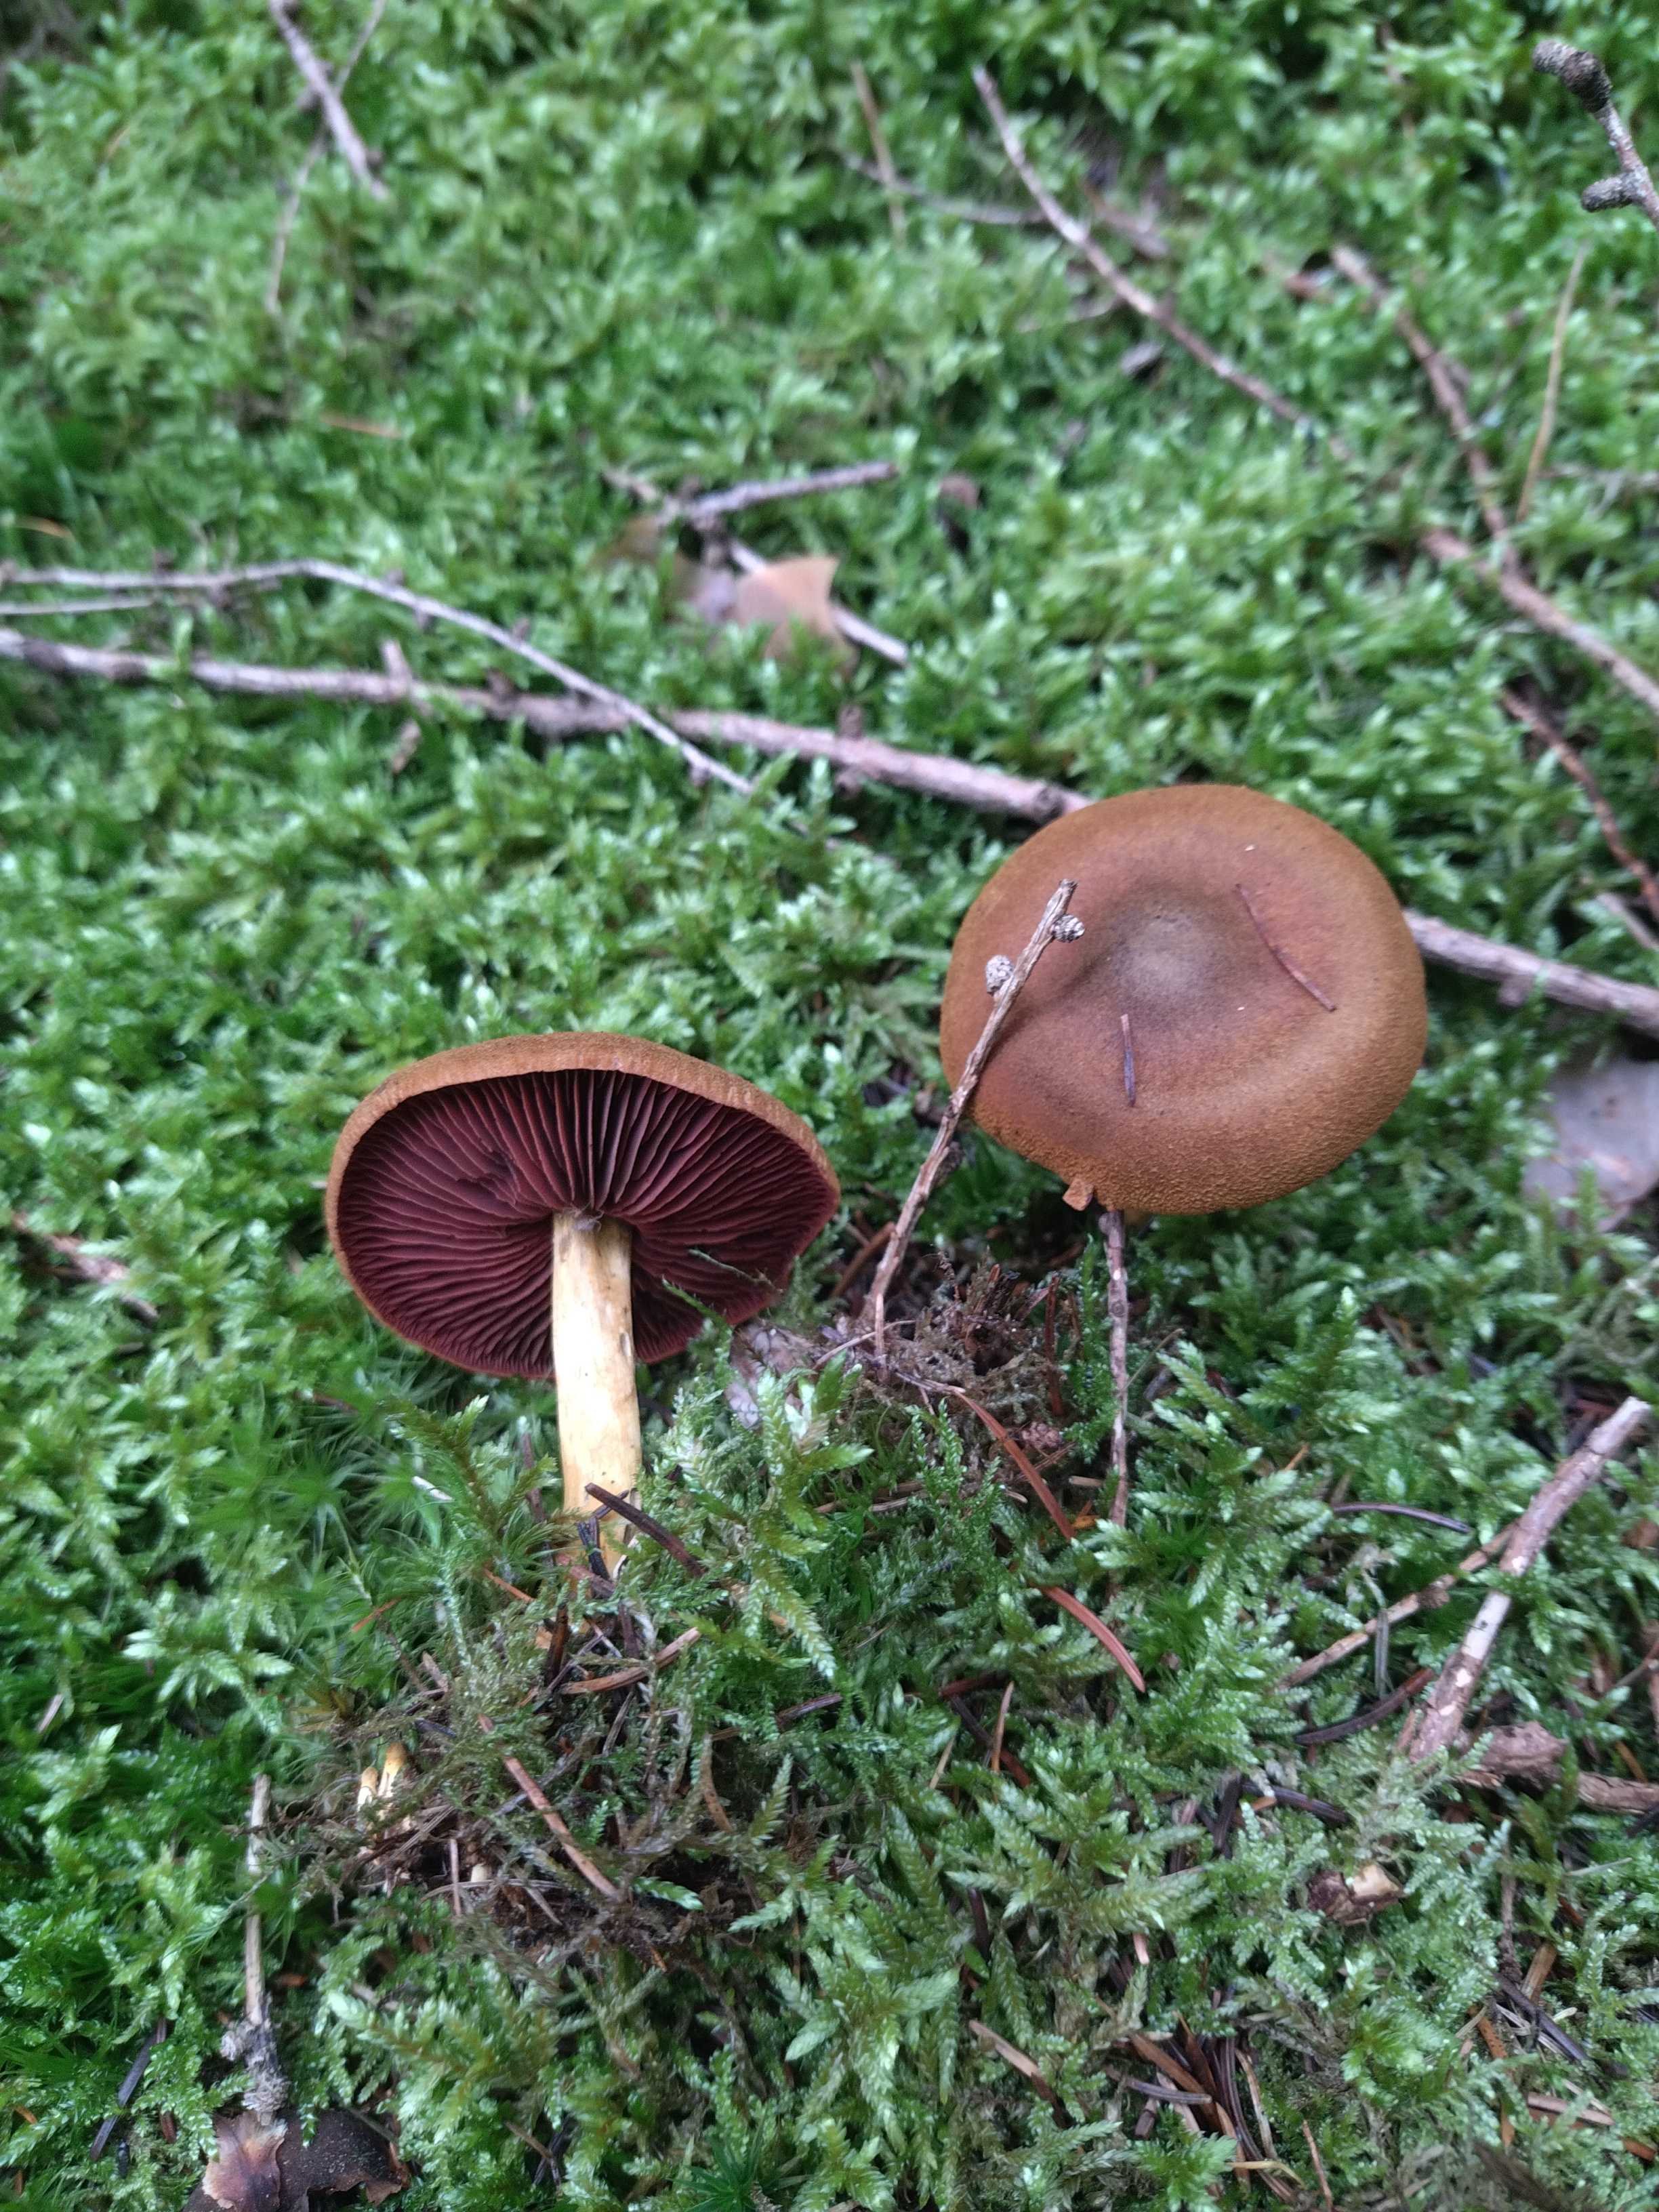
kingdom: Fungi
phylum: Basidiomycota
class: Agaricomycetes
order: Agaricales
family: Cortinariaceae
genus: Cortinarius
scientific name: Cortinarius
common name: cinnoberbladet slørhat
